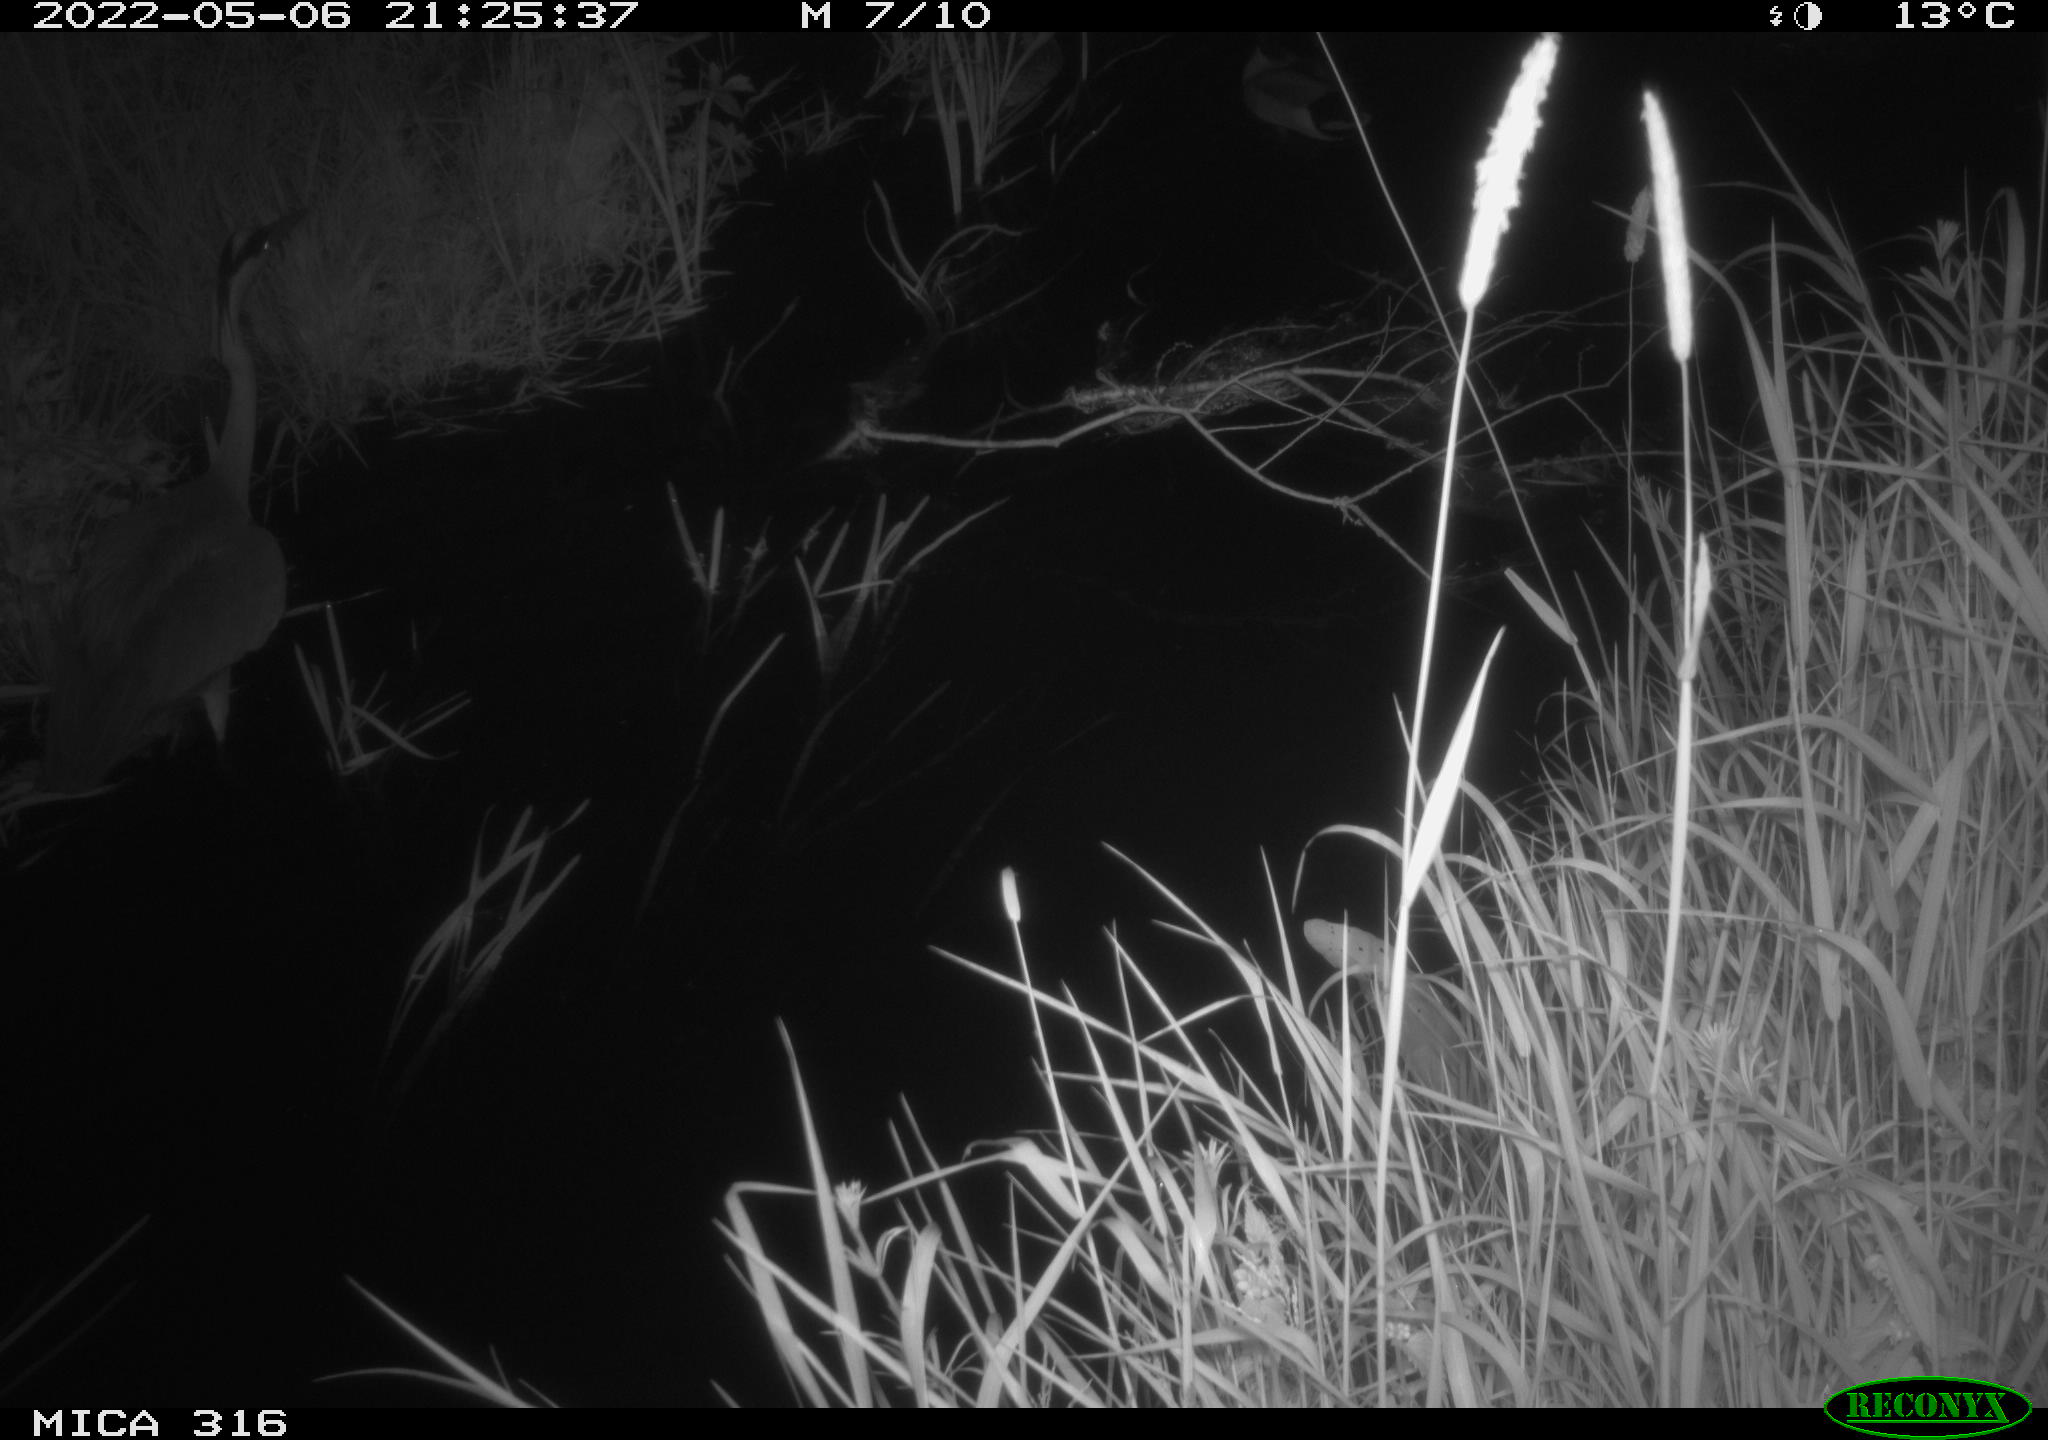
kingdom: Animalia
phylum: Chordata
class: Aves
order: Pelecaniformes
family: Ardeidae
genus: Ardea
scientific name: Ardea
